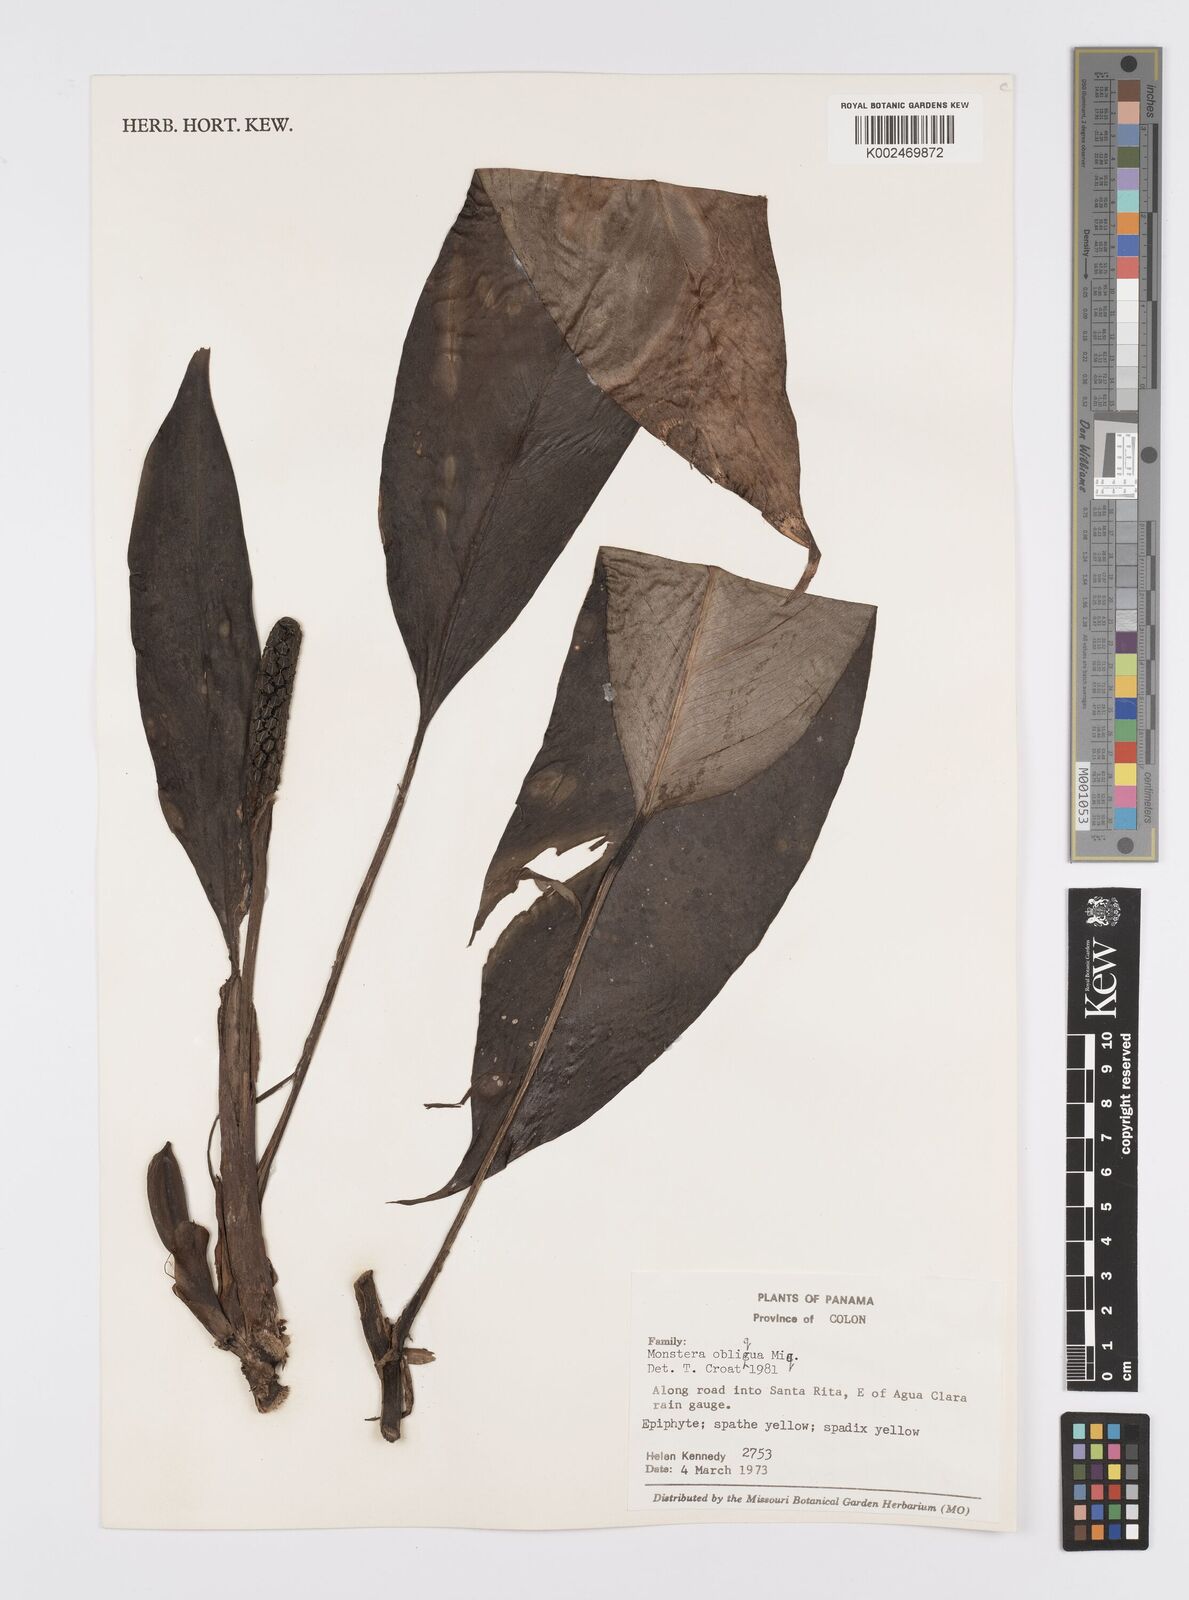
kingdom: Plantae
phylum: Tracheophyta
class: Liliopsida
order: Alismatales
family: Araceae
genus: Monstera
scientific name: Monstera obliqua
